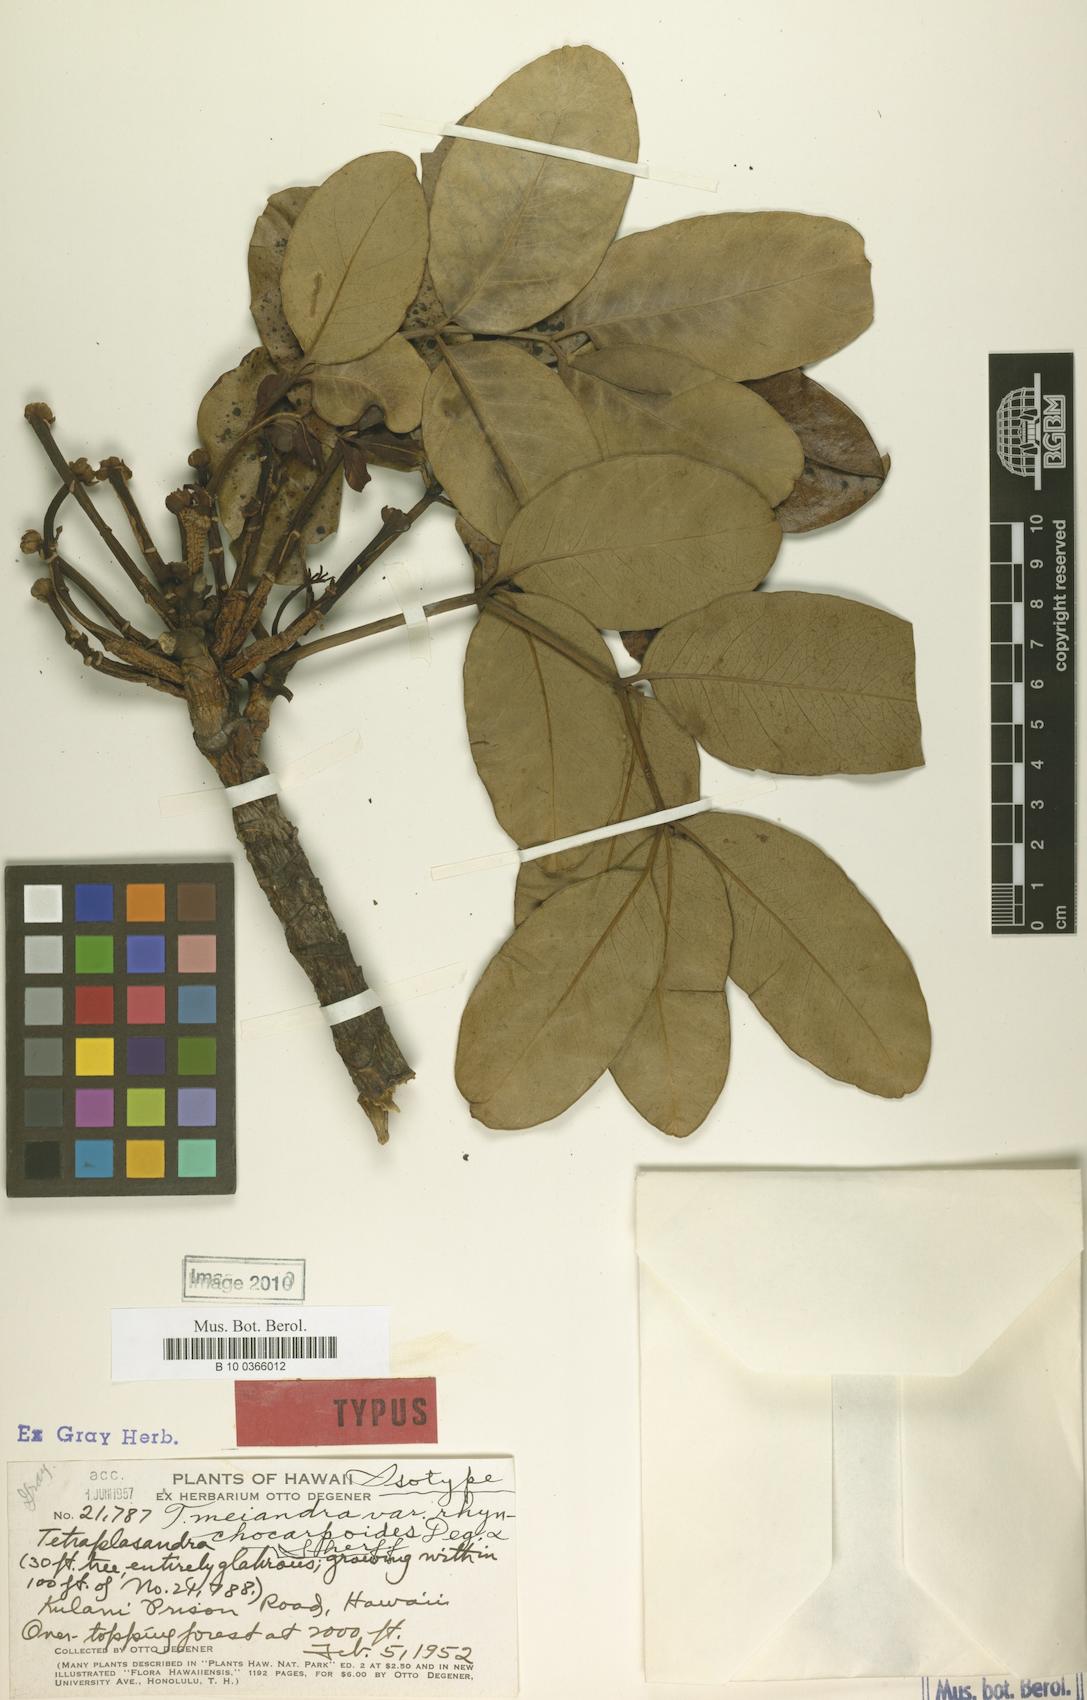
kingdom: Plantae
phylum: Tracheophyta
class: Magnoliopsida
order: Apiales
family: Araliaceae
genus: Polyscias
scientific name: Polyscias oahuensis
